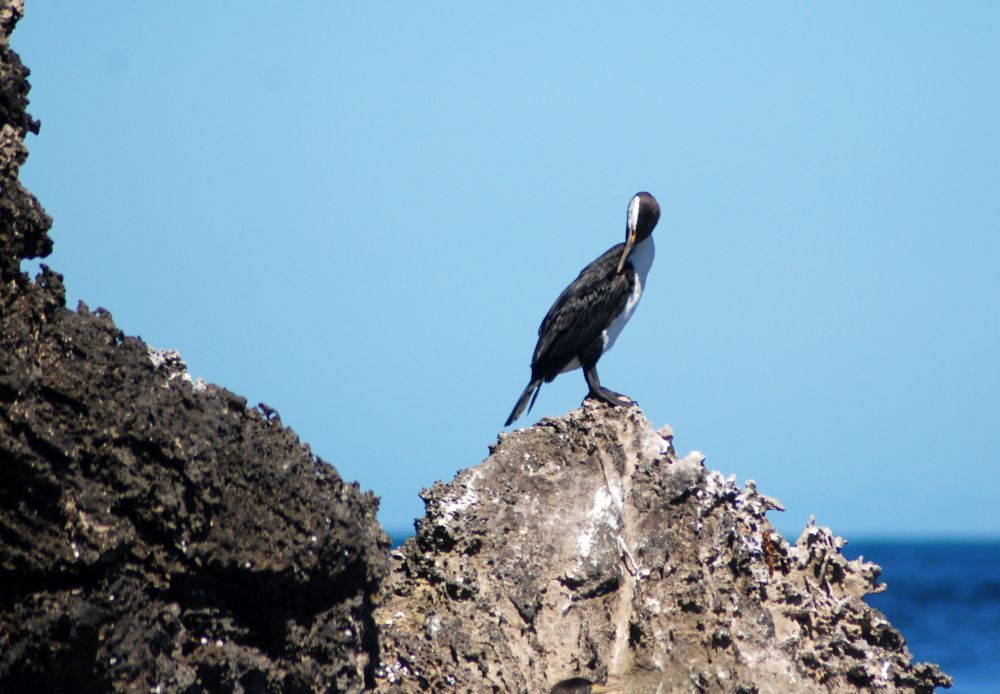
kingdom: Animalia
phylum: Chordata
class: Aves
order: Suliformes
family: Phalacrocoracidae
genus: Phalacrocorax
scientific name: Phalacrocorax varius
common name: Pied cormorant
